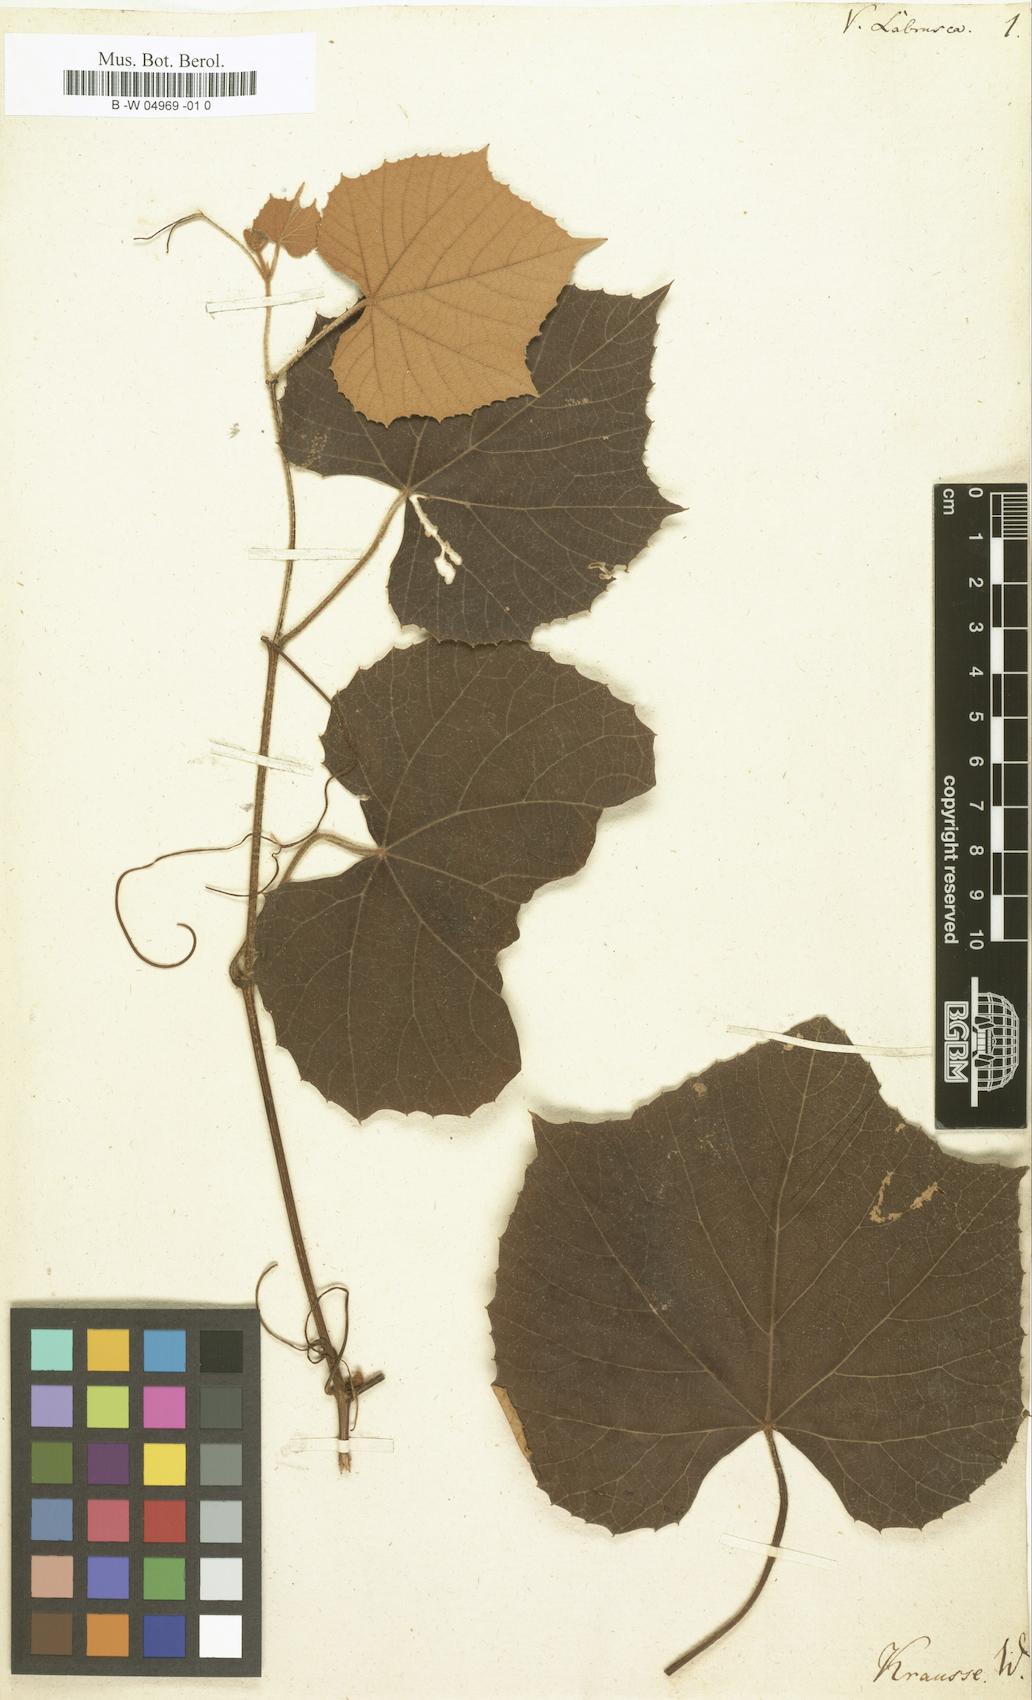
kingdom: Plantae
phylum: Tracheophyta
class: Magnoliopsida
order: Vitales
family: Vitaceae
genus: Vitis
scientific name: Vitis labrusca
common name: Concord grape
